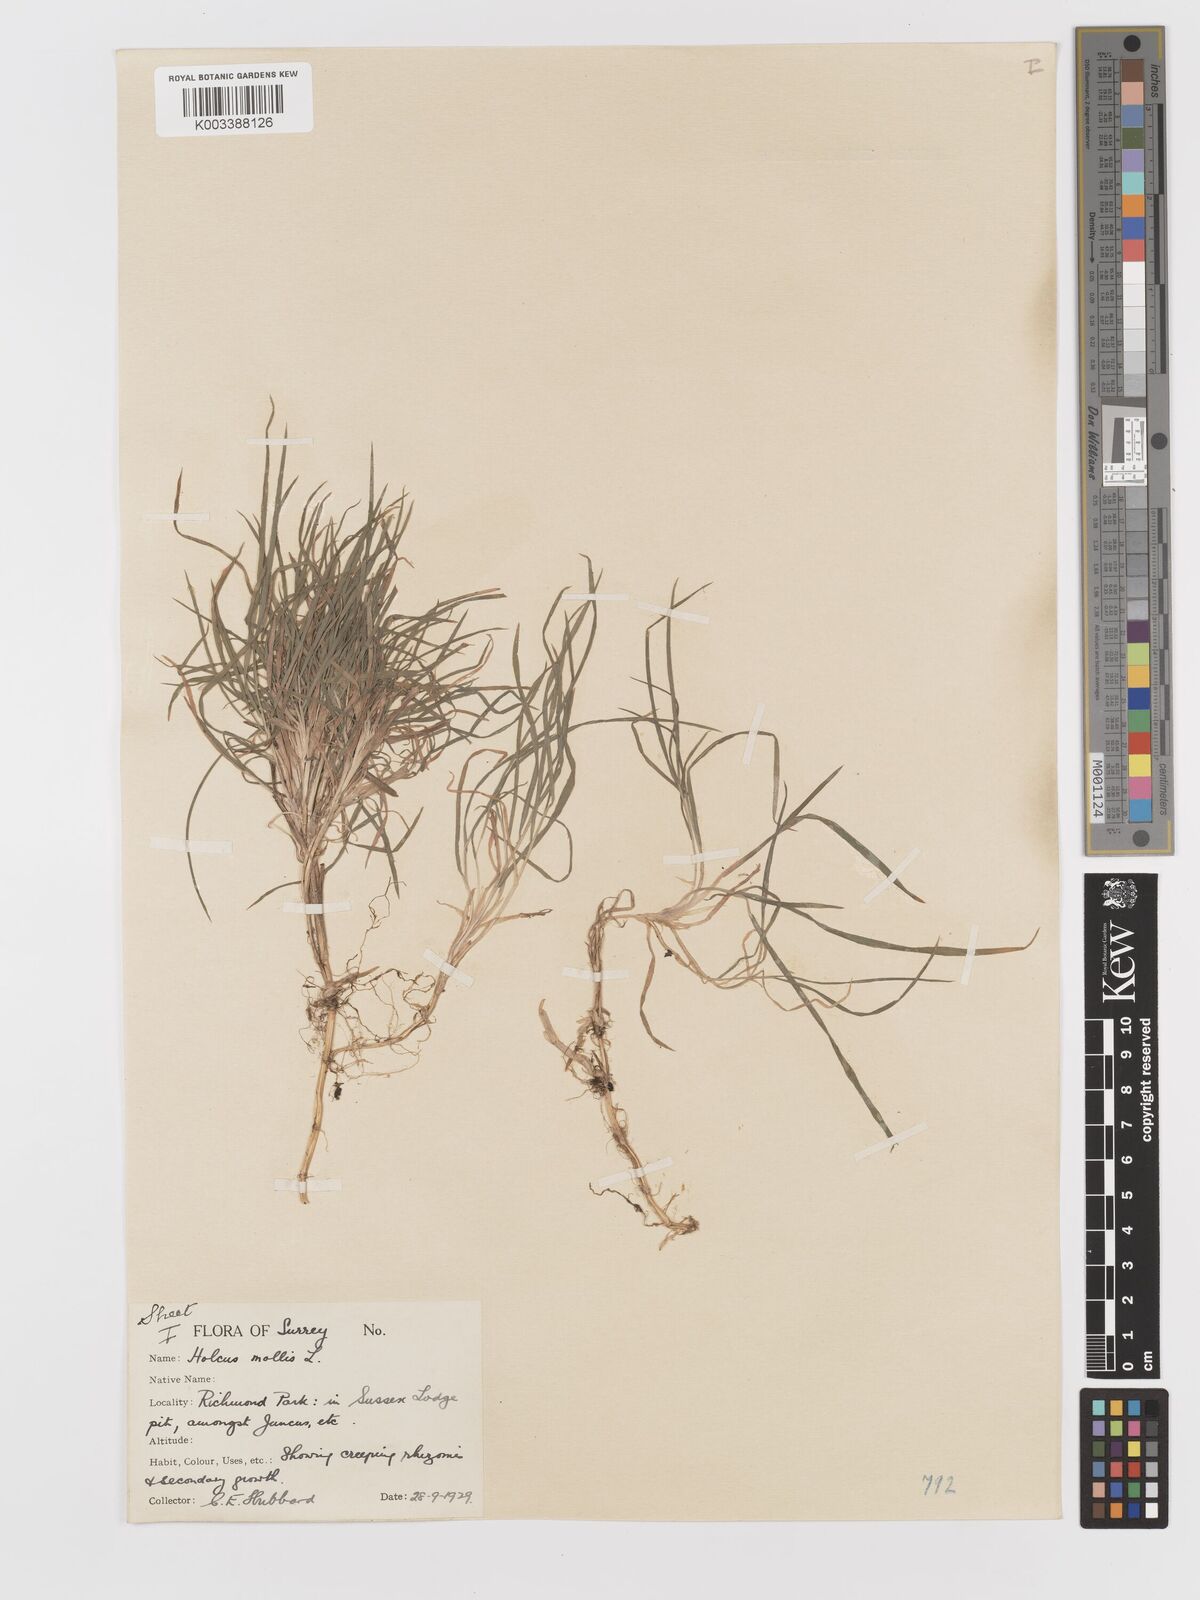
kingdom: Plantae
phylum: Tracheophyta
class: Liliopsida
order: Poales
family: Poaceae
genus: Holcus
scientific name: Holcus mollis
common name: Creeping velvetgrass
